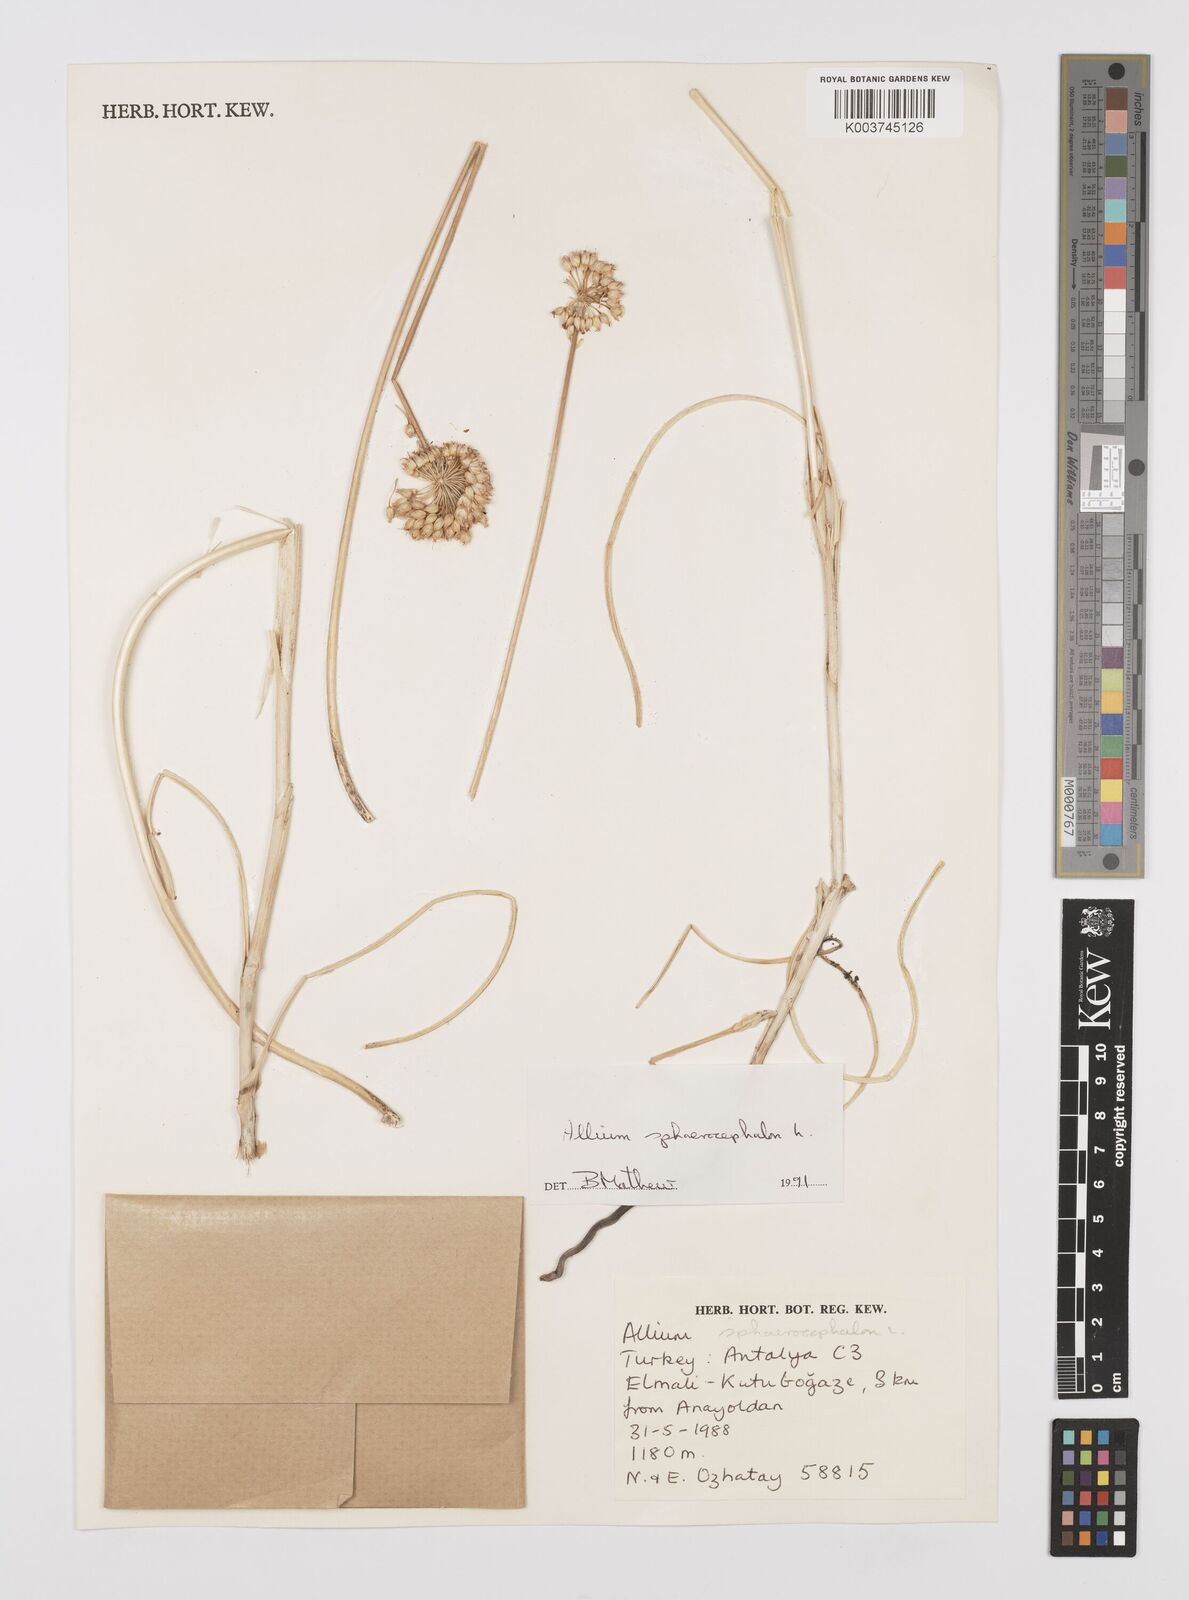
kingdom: Plantae
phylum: Tracheophyta
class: Liliopsida
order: Asparagales
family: Amaryllidaceae
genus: Allium
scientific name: Allium vineale
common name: Crow garlic
